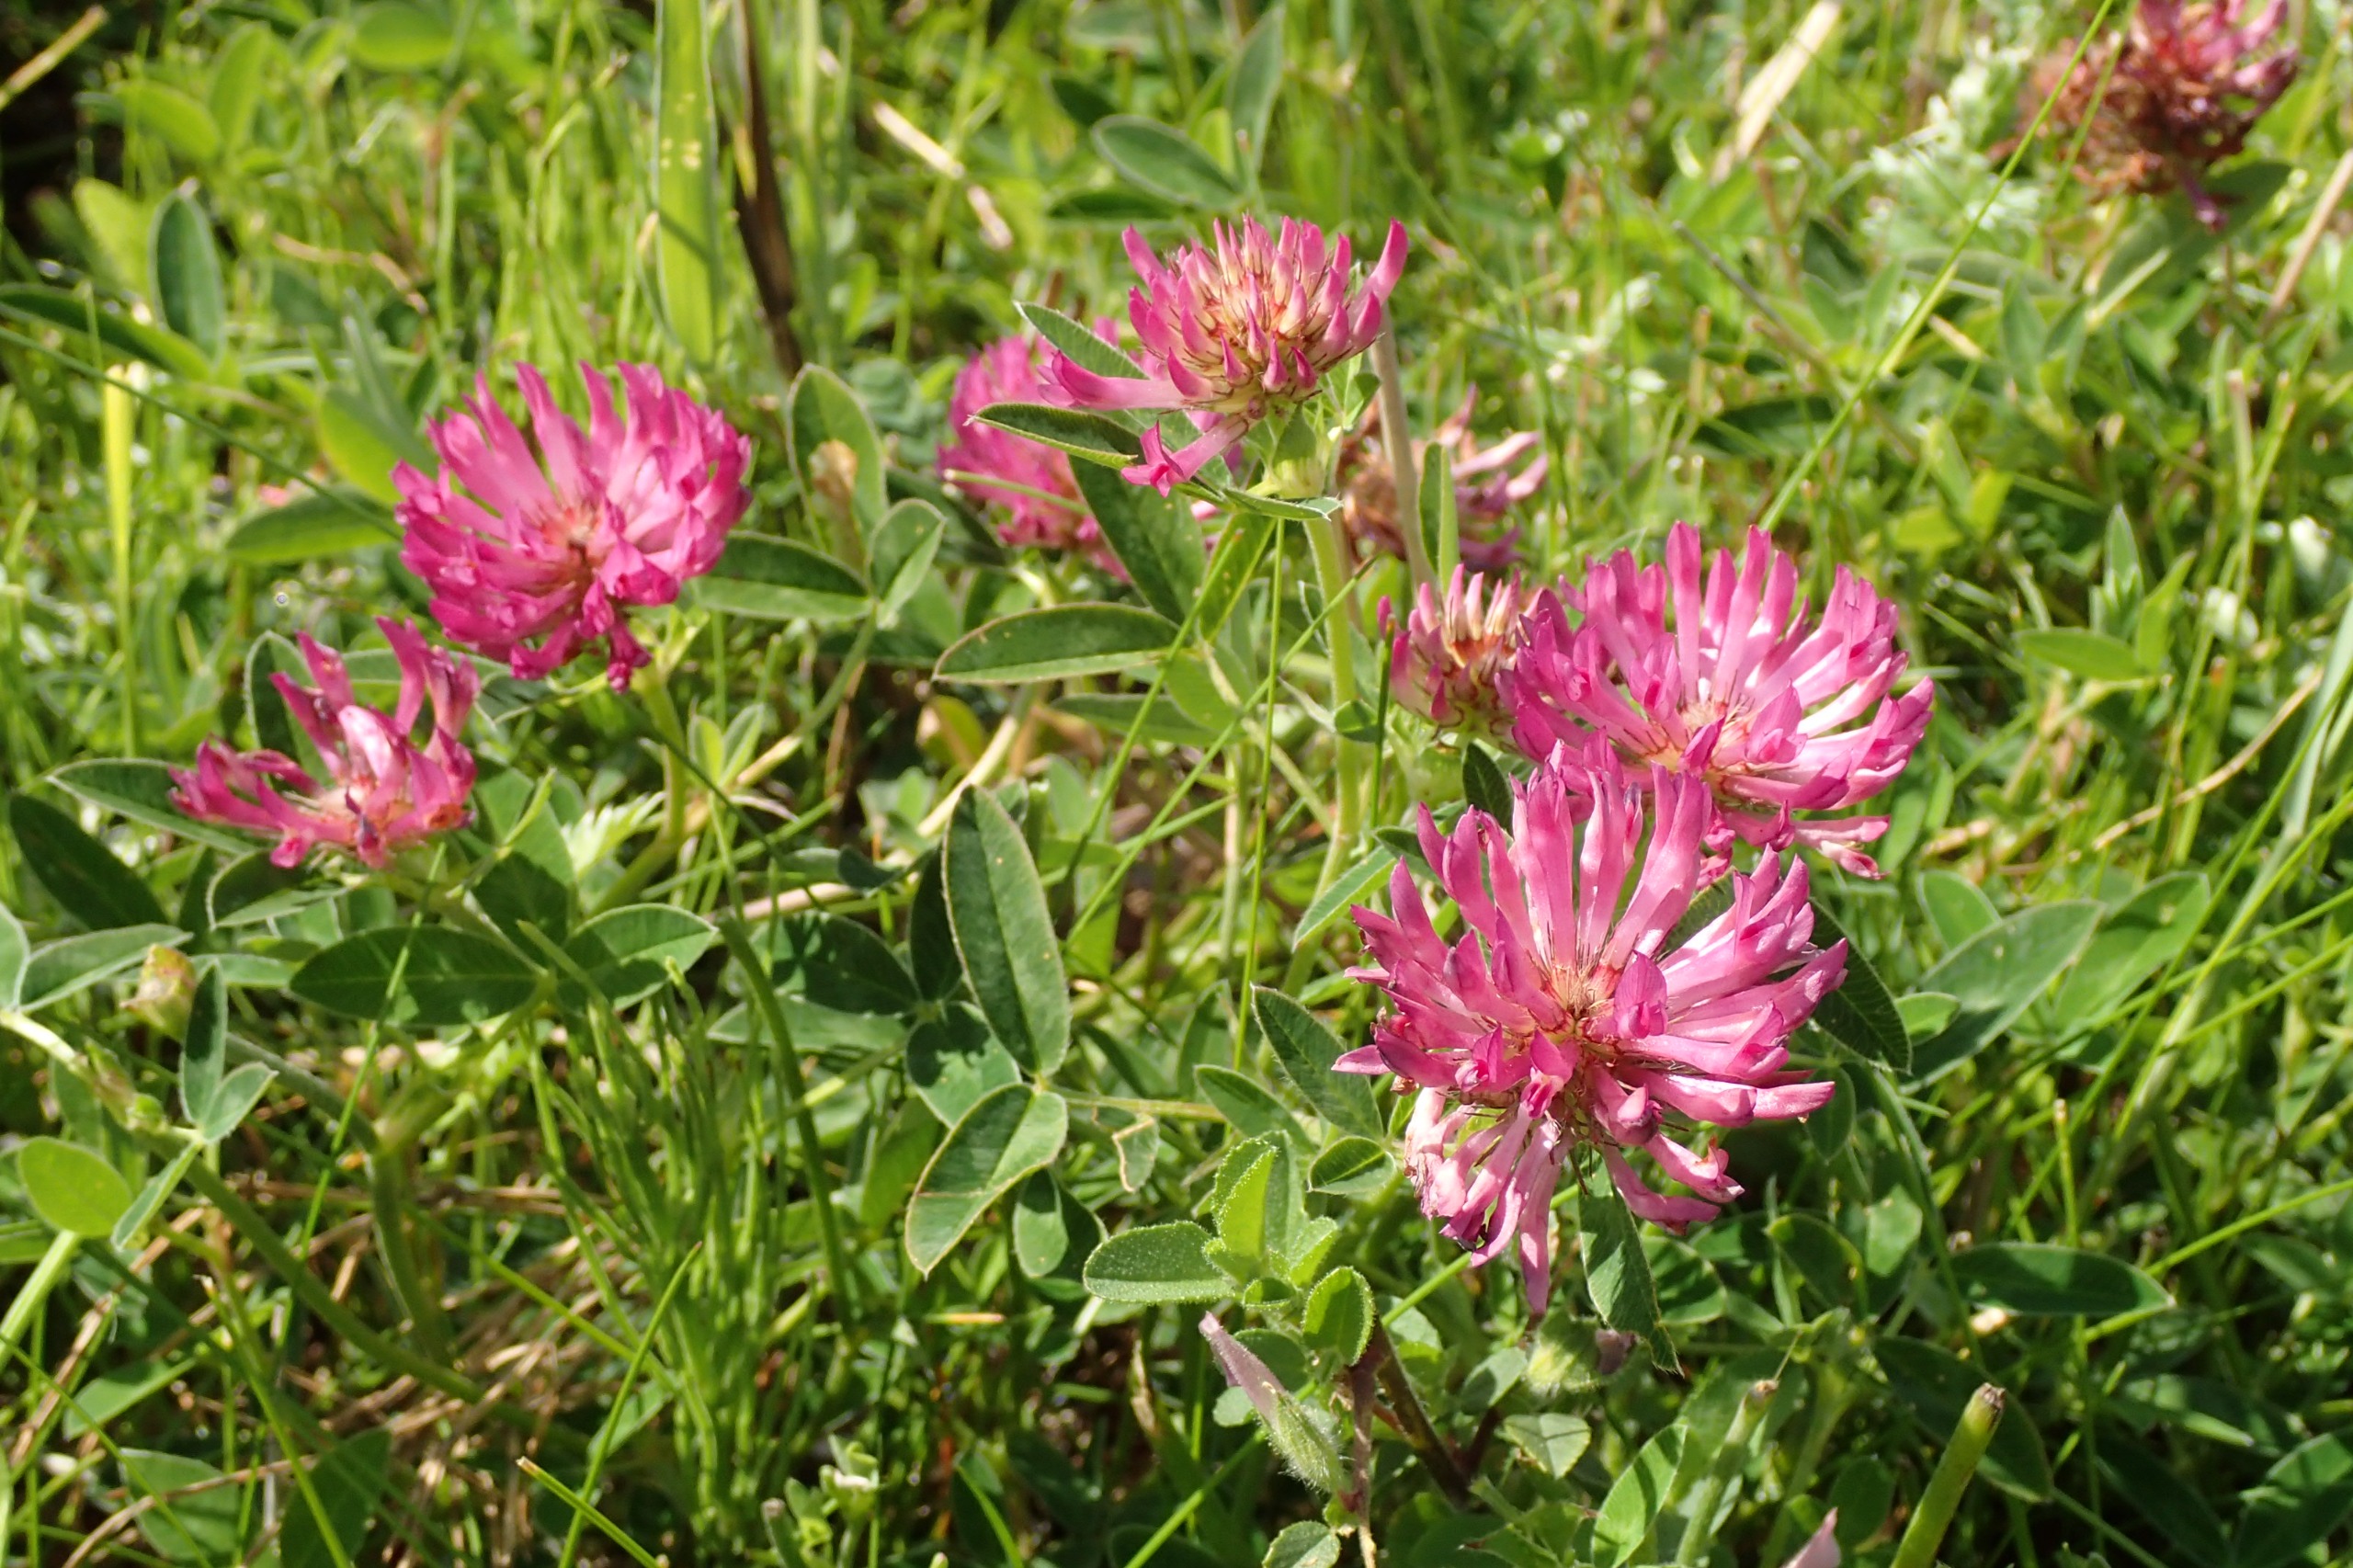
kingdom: Plantae
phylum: Tracheophyta
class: Magnoliopsida
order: Fabales
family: Fabaceae
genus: Trifolium
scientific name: Trifolium medium
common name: Bugtet kløver
